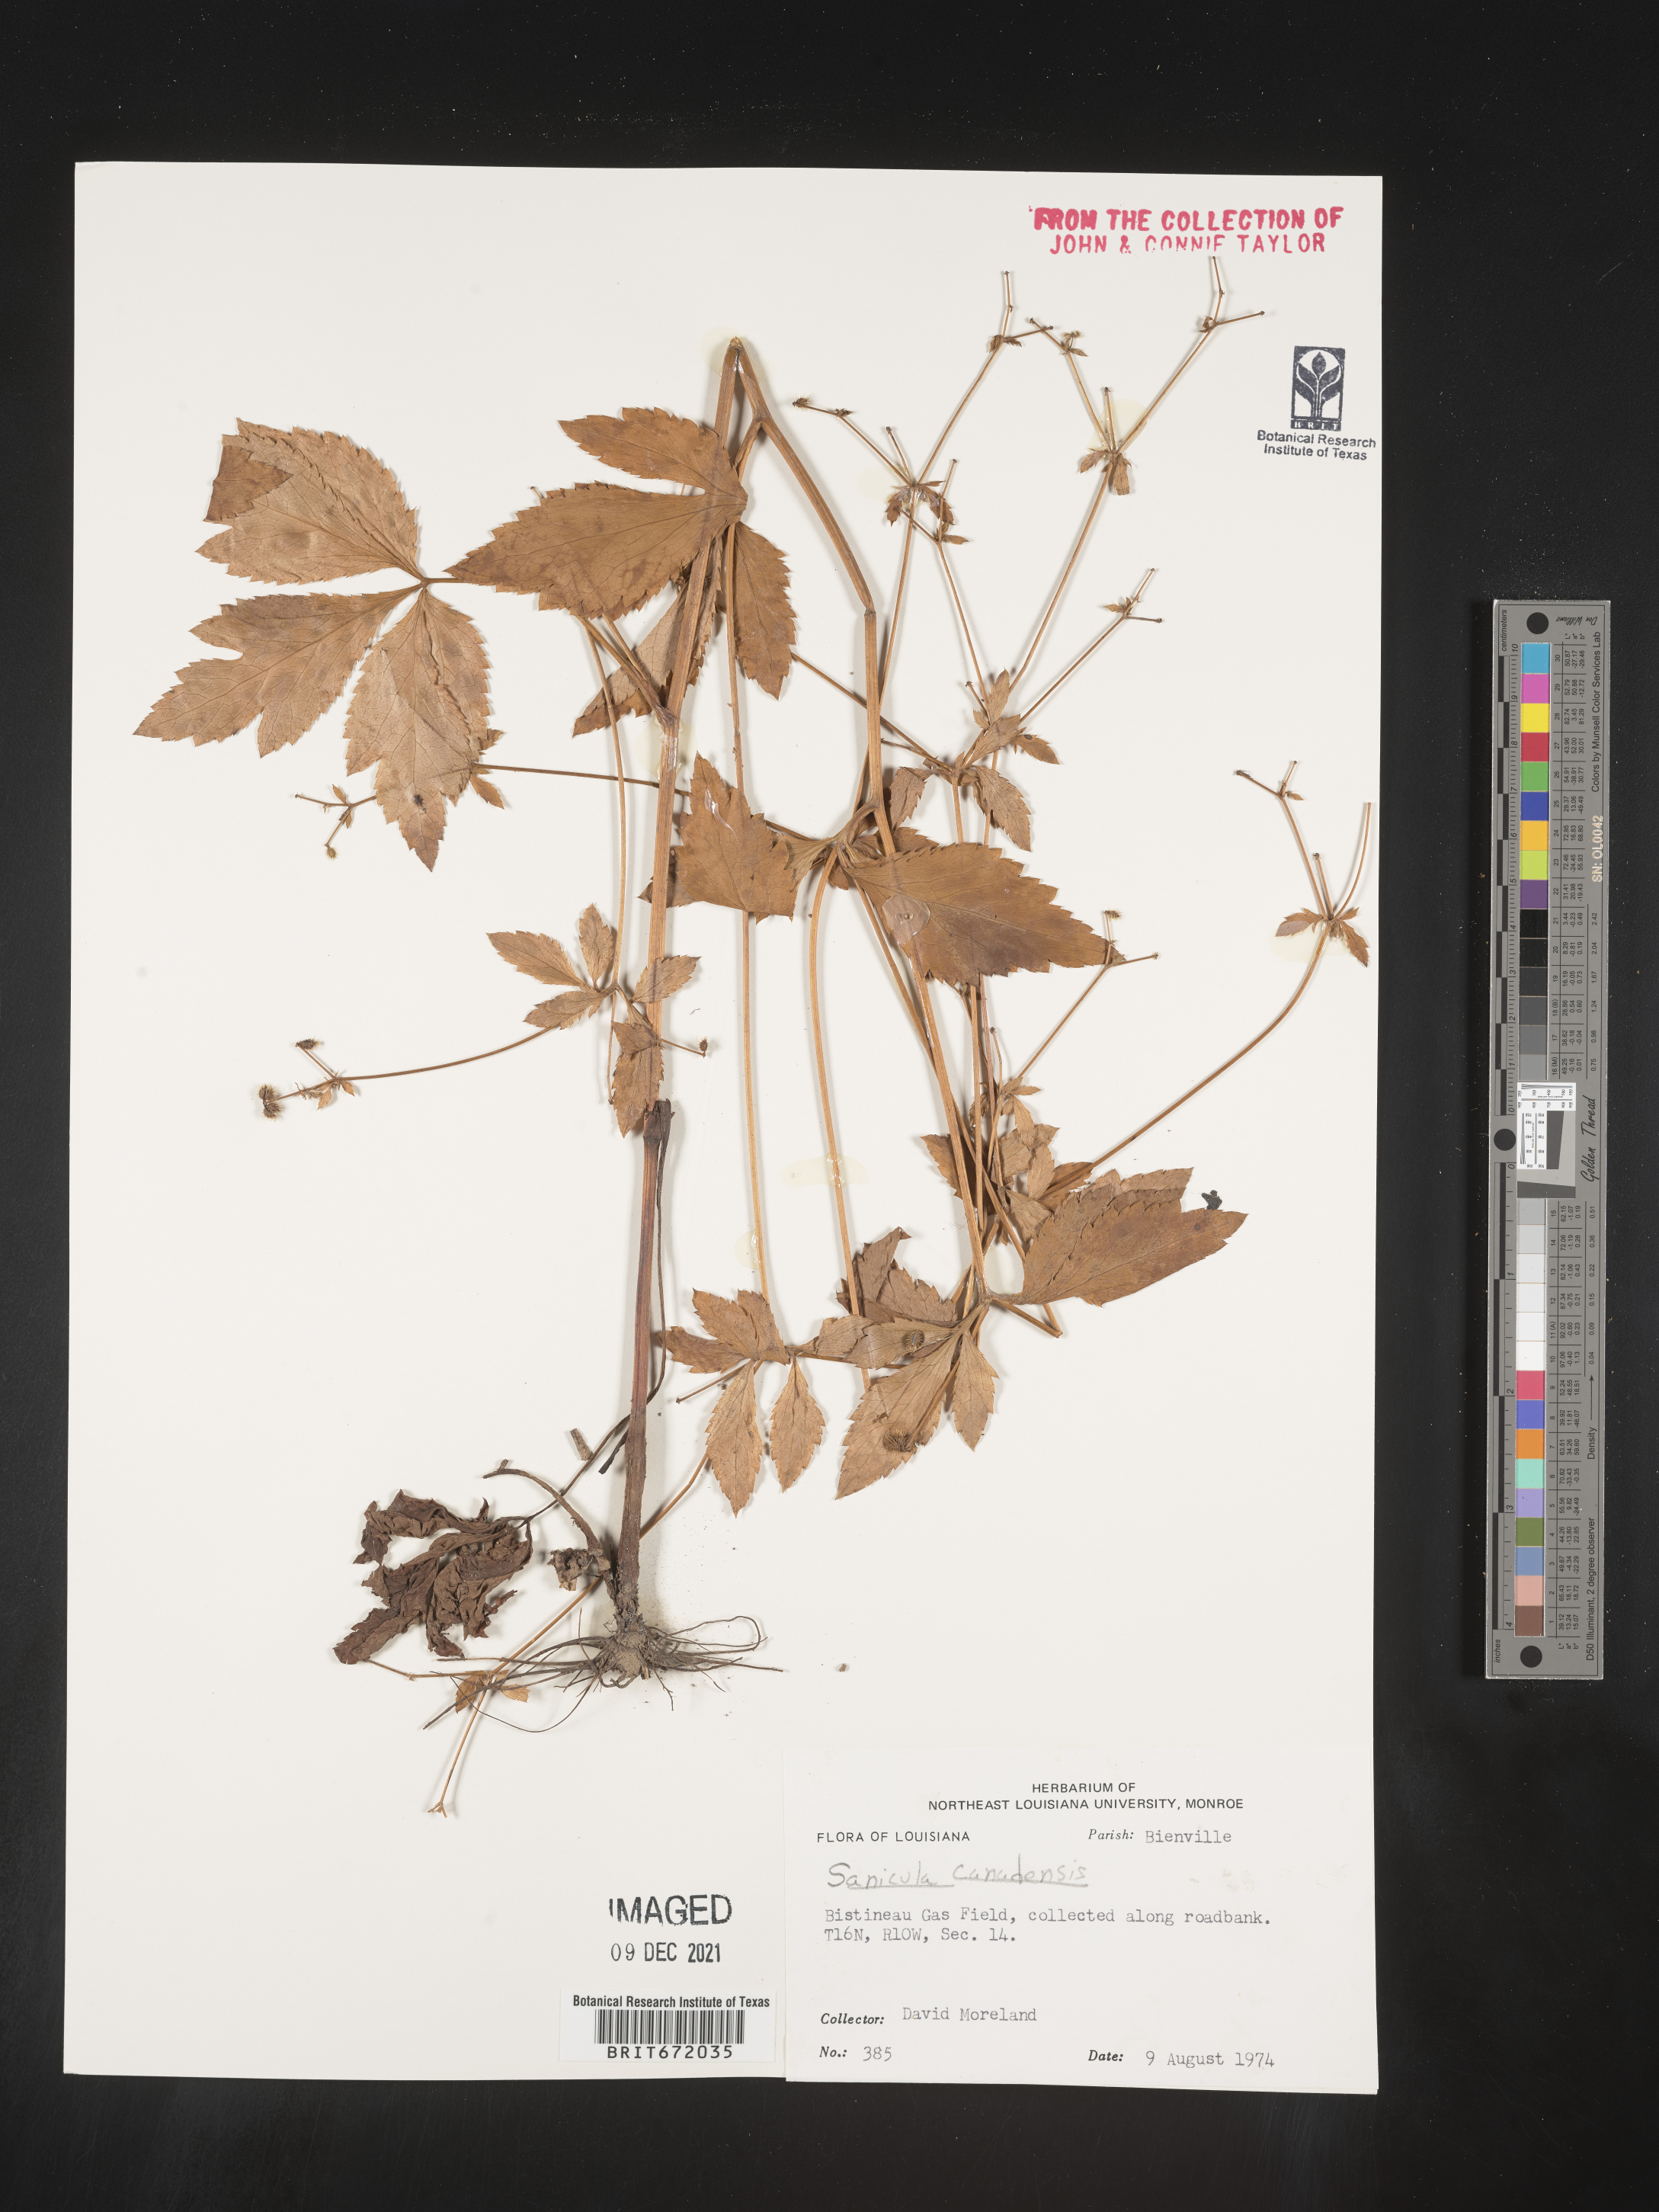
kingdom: Plantae
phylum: Tracheophyta
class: Magnoliopsida
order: Apiales
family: Apiaceae
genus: Sanicula
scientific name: Sanicula canadensis
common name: Canada sanicle
